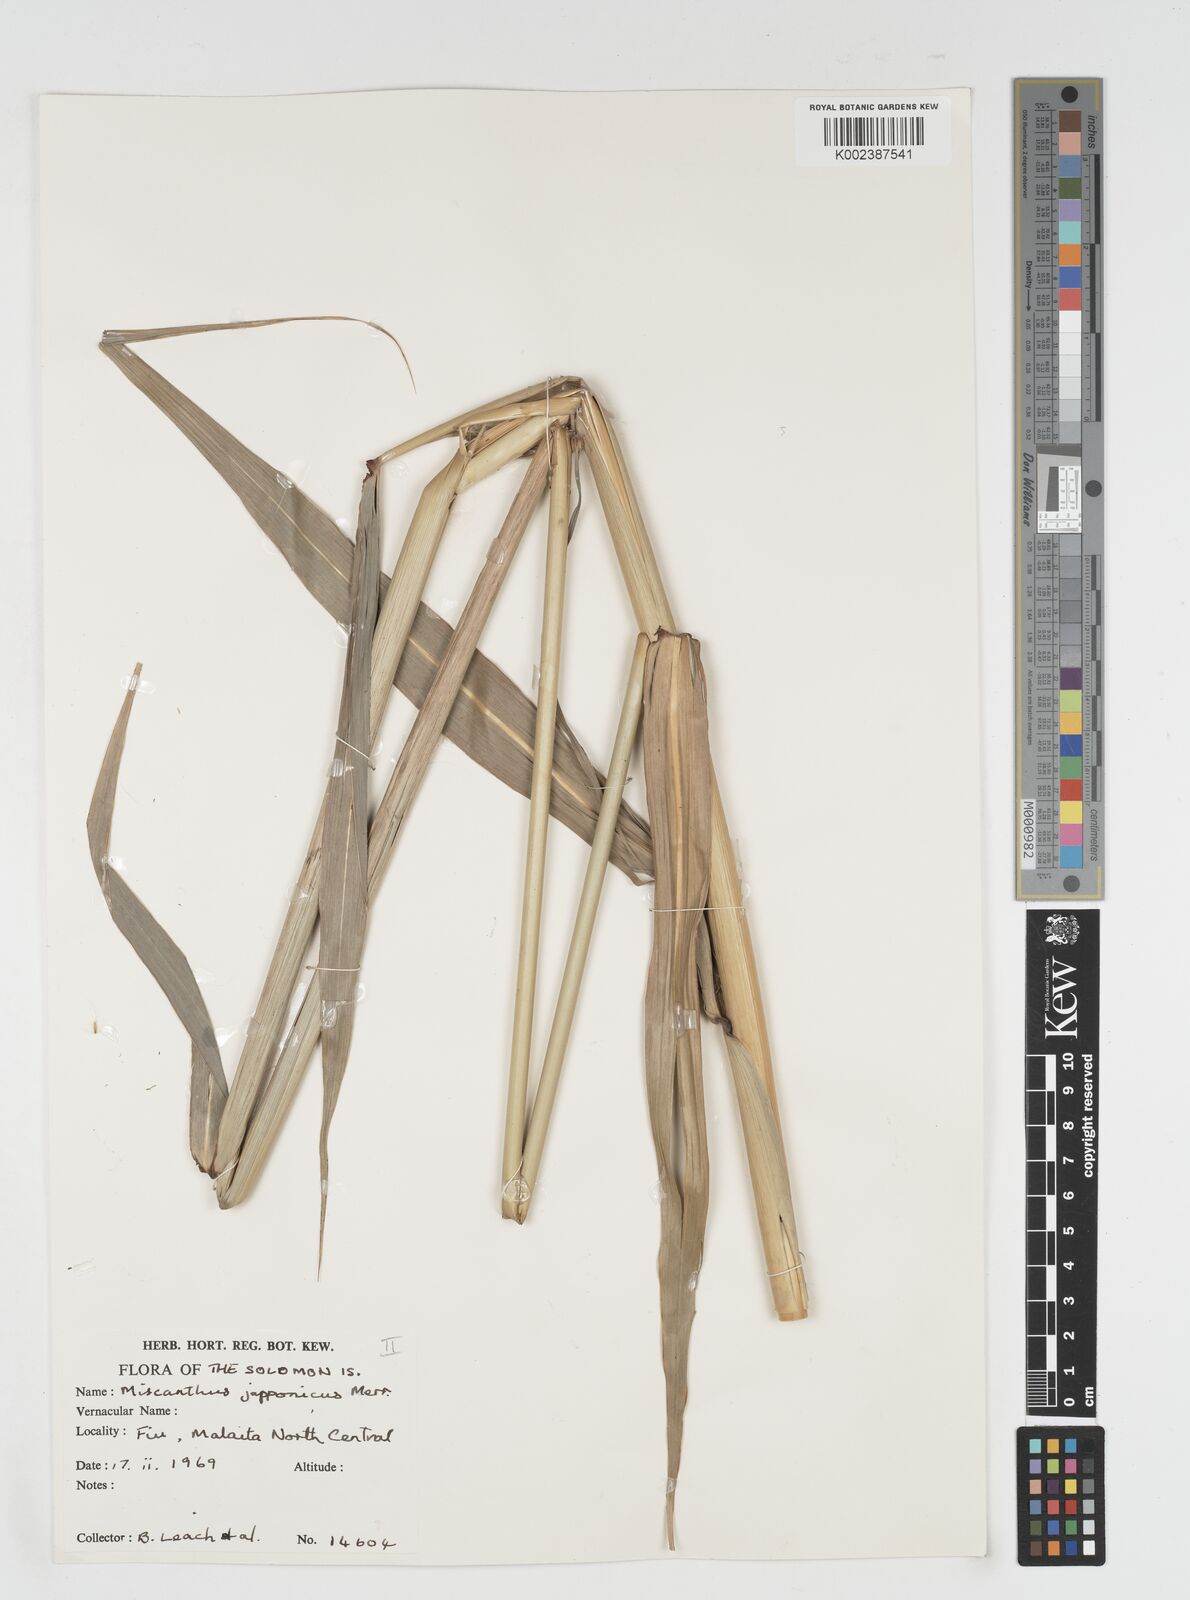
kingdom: Plantae
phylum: Tracheophyta
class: Liliopsida
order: Poales
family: Poaceae
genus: Miscanthus
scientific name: Miscanthus
